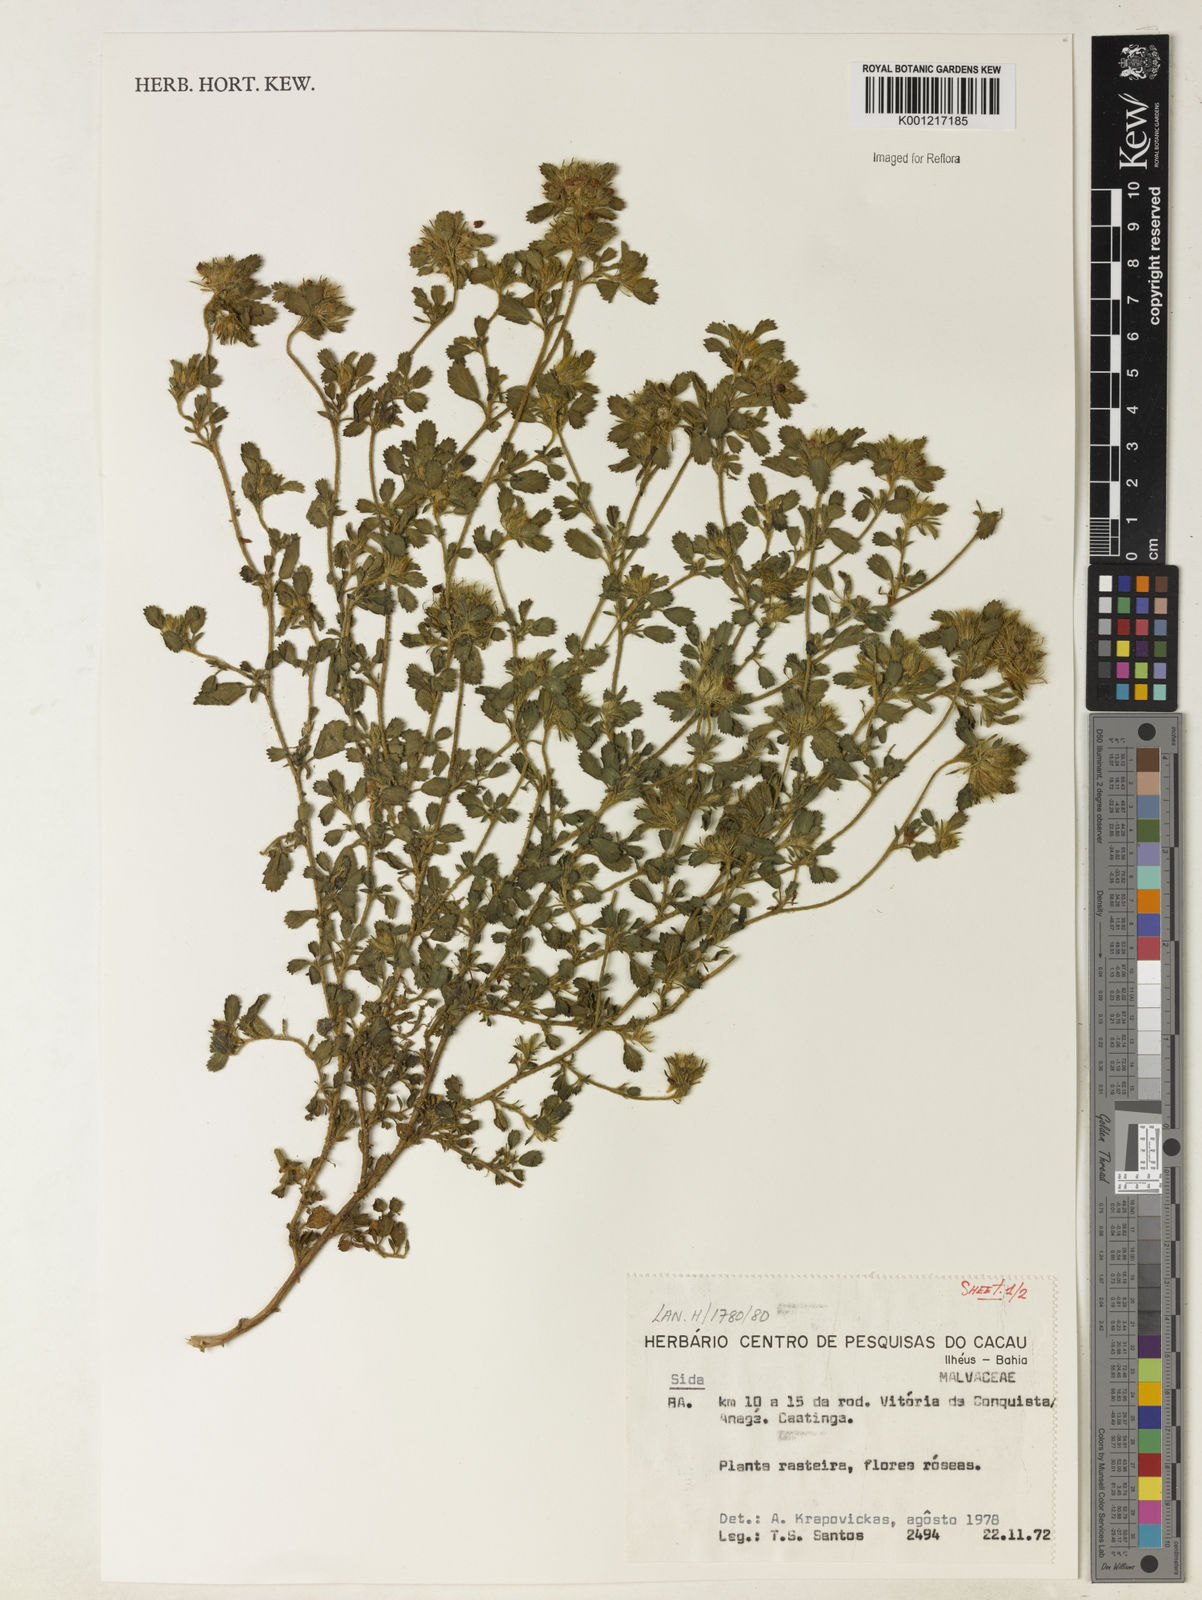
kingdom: Plantae
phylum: Tracheophyta
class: Magnoliopsida
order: Malvales
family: Malvaceae
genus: Sida
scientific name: Sida
